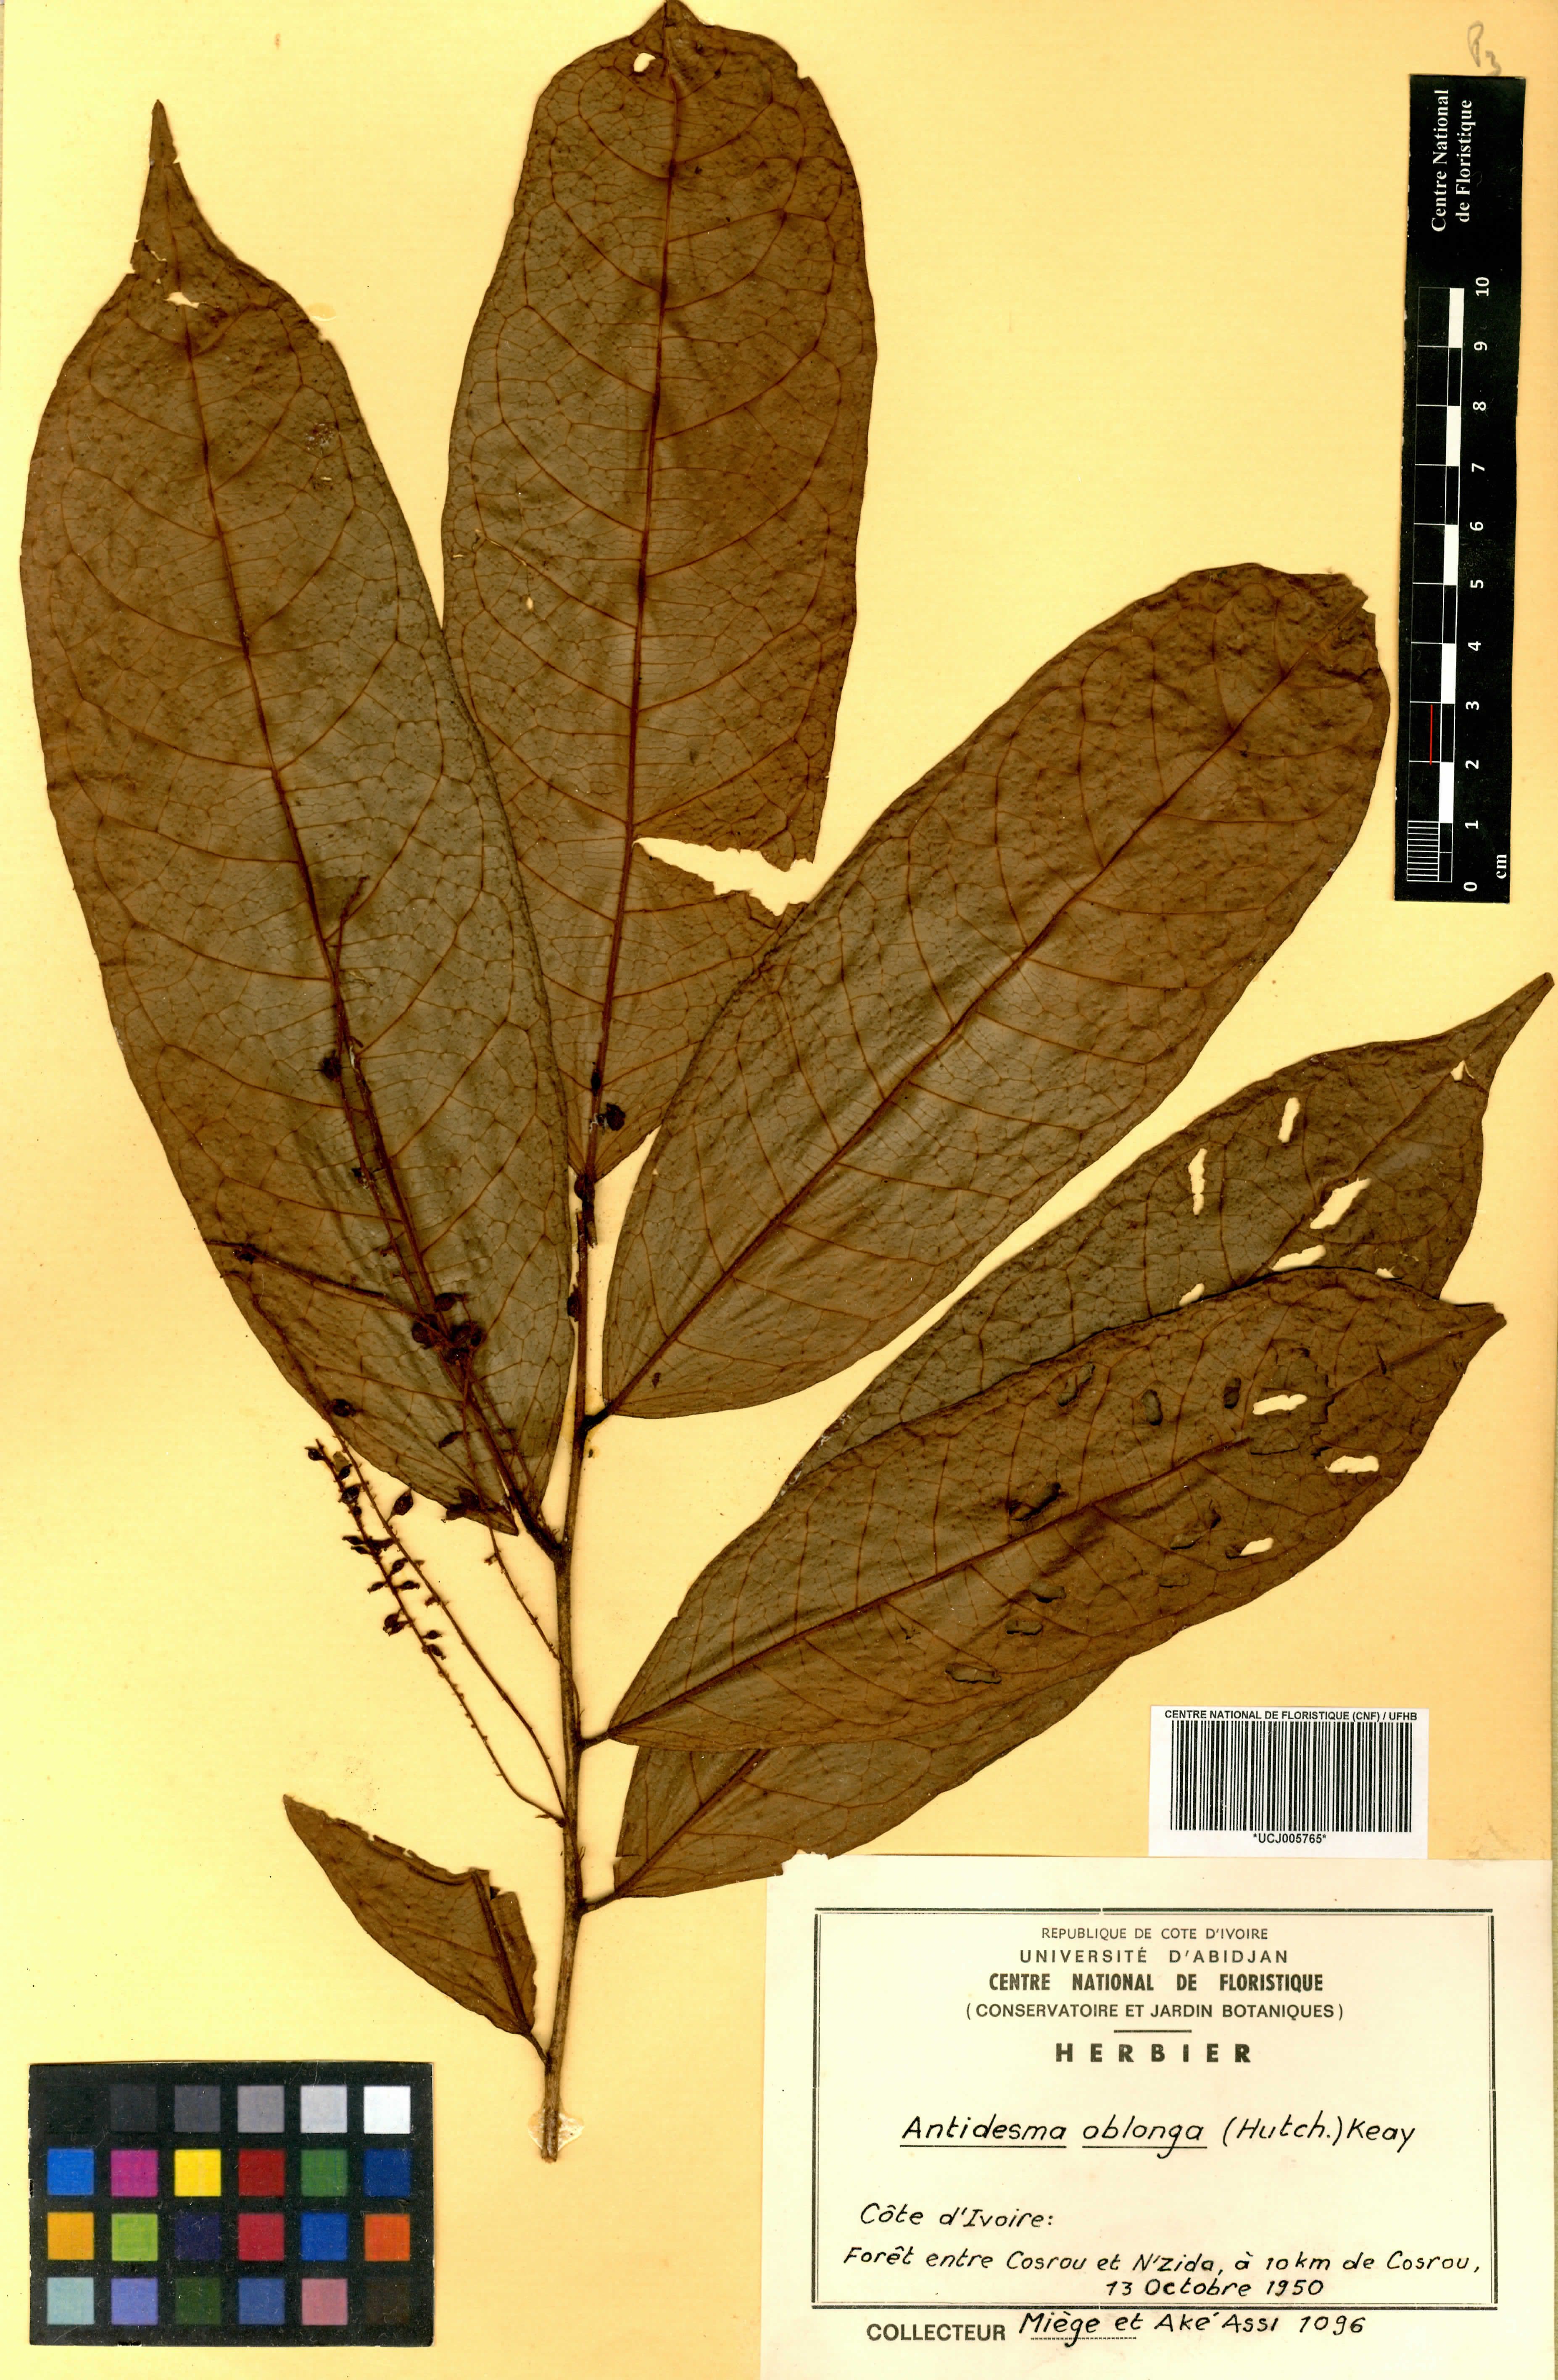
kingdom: Plantae
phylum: Tracheophyta
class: Magnoliopsida
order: Malpighiales
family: Phyllanthaceae
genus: Antidesma
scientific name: Antidesma oblongum
